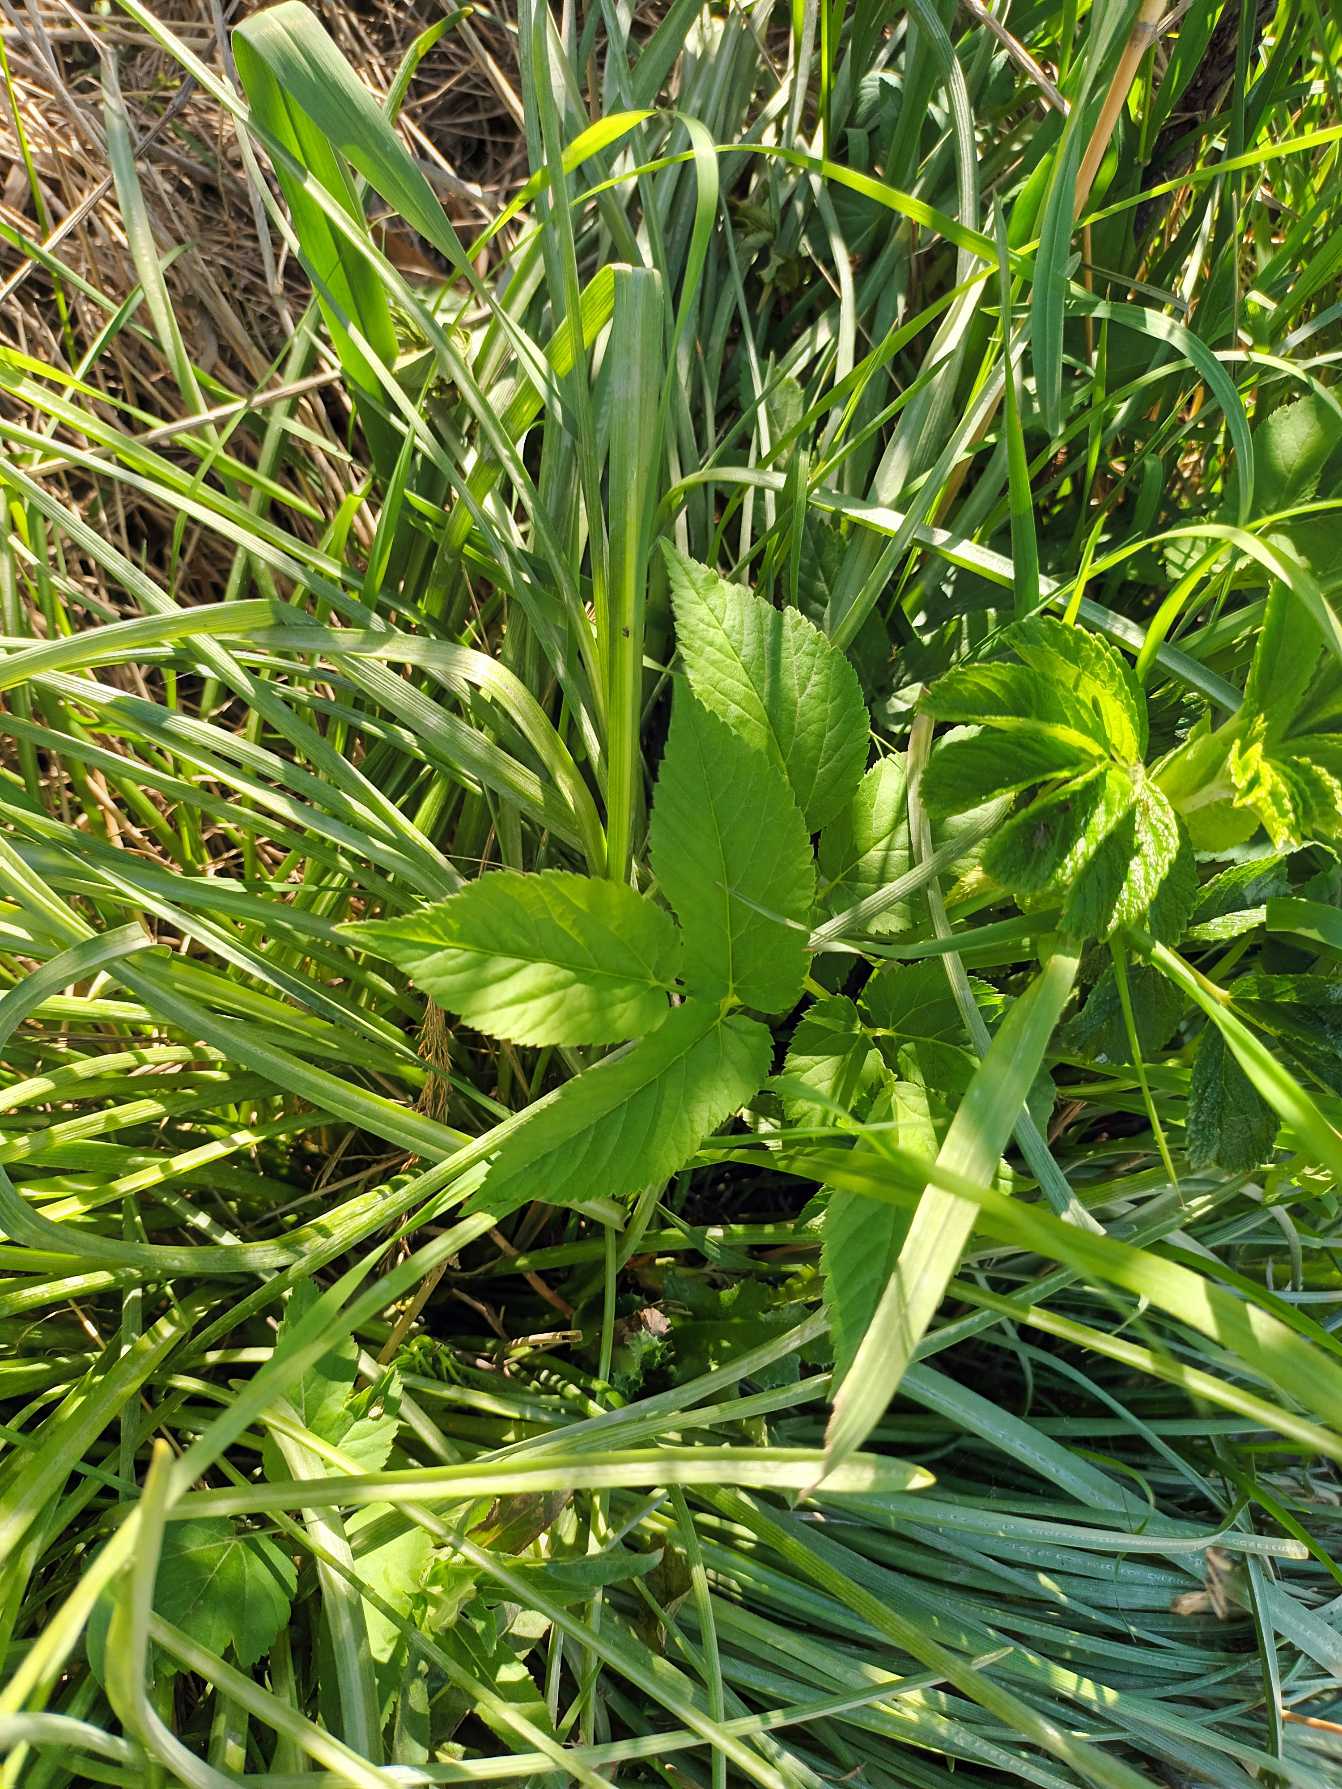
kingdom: Plantae
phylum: Tracheophyta
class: Magnoliopsida
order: Apiales
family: Apiaceae
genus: Aegopodium
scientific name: Aegopodium podagraria
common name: Skvalderkål
